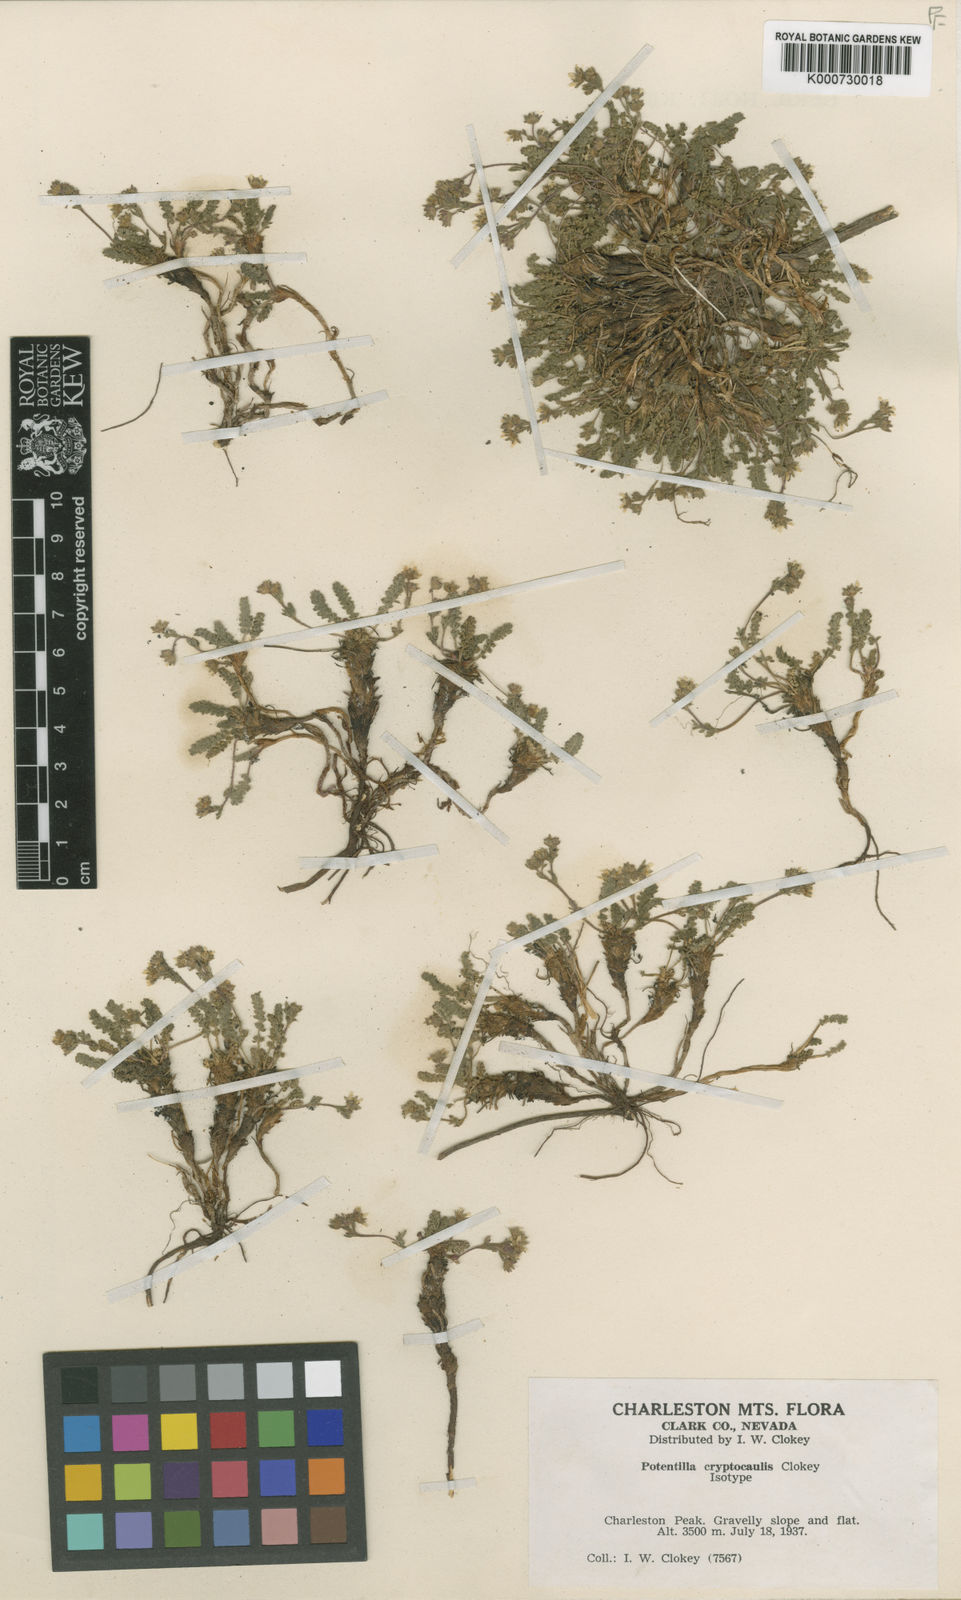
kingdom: Plantae
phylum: Tracheophyta
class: Magnoliopsida
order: Rosales
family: Rosaceae
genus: Potentilla
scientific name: Potentilla cryptocaulis
